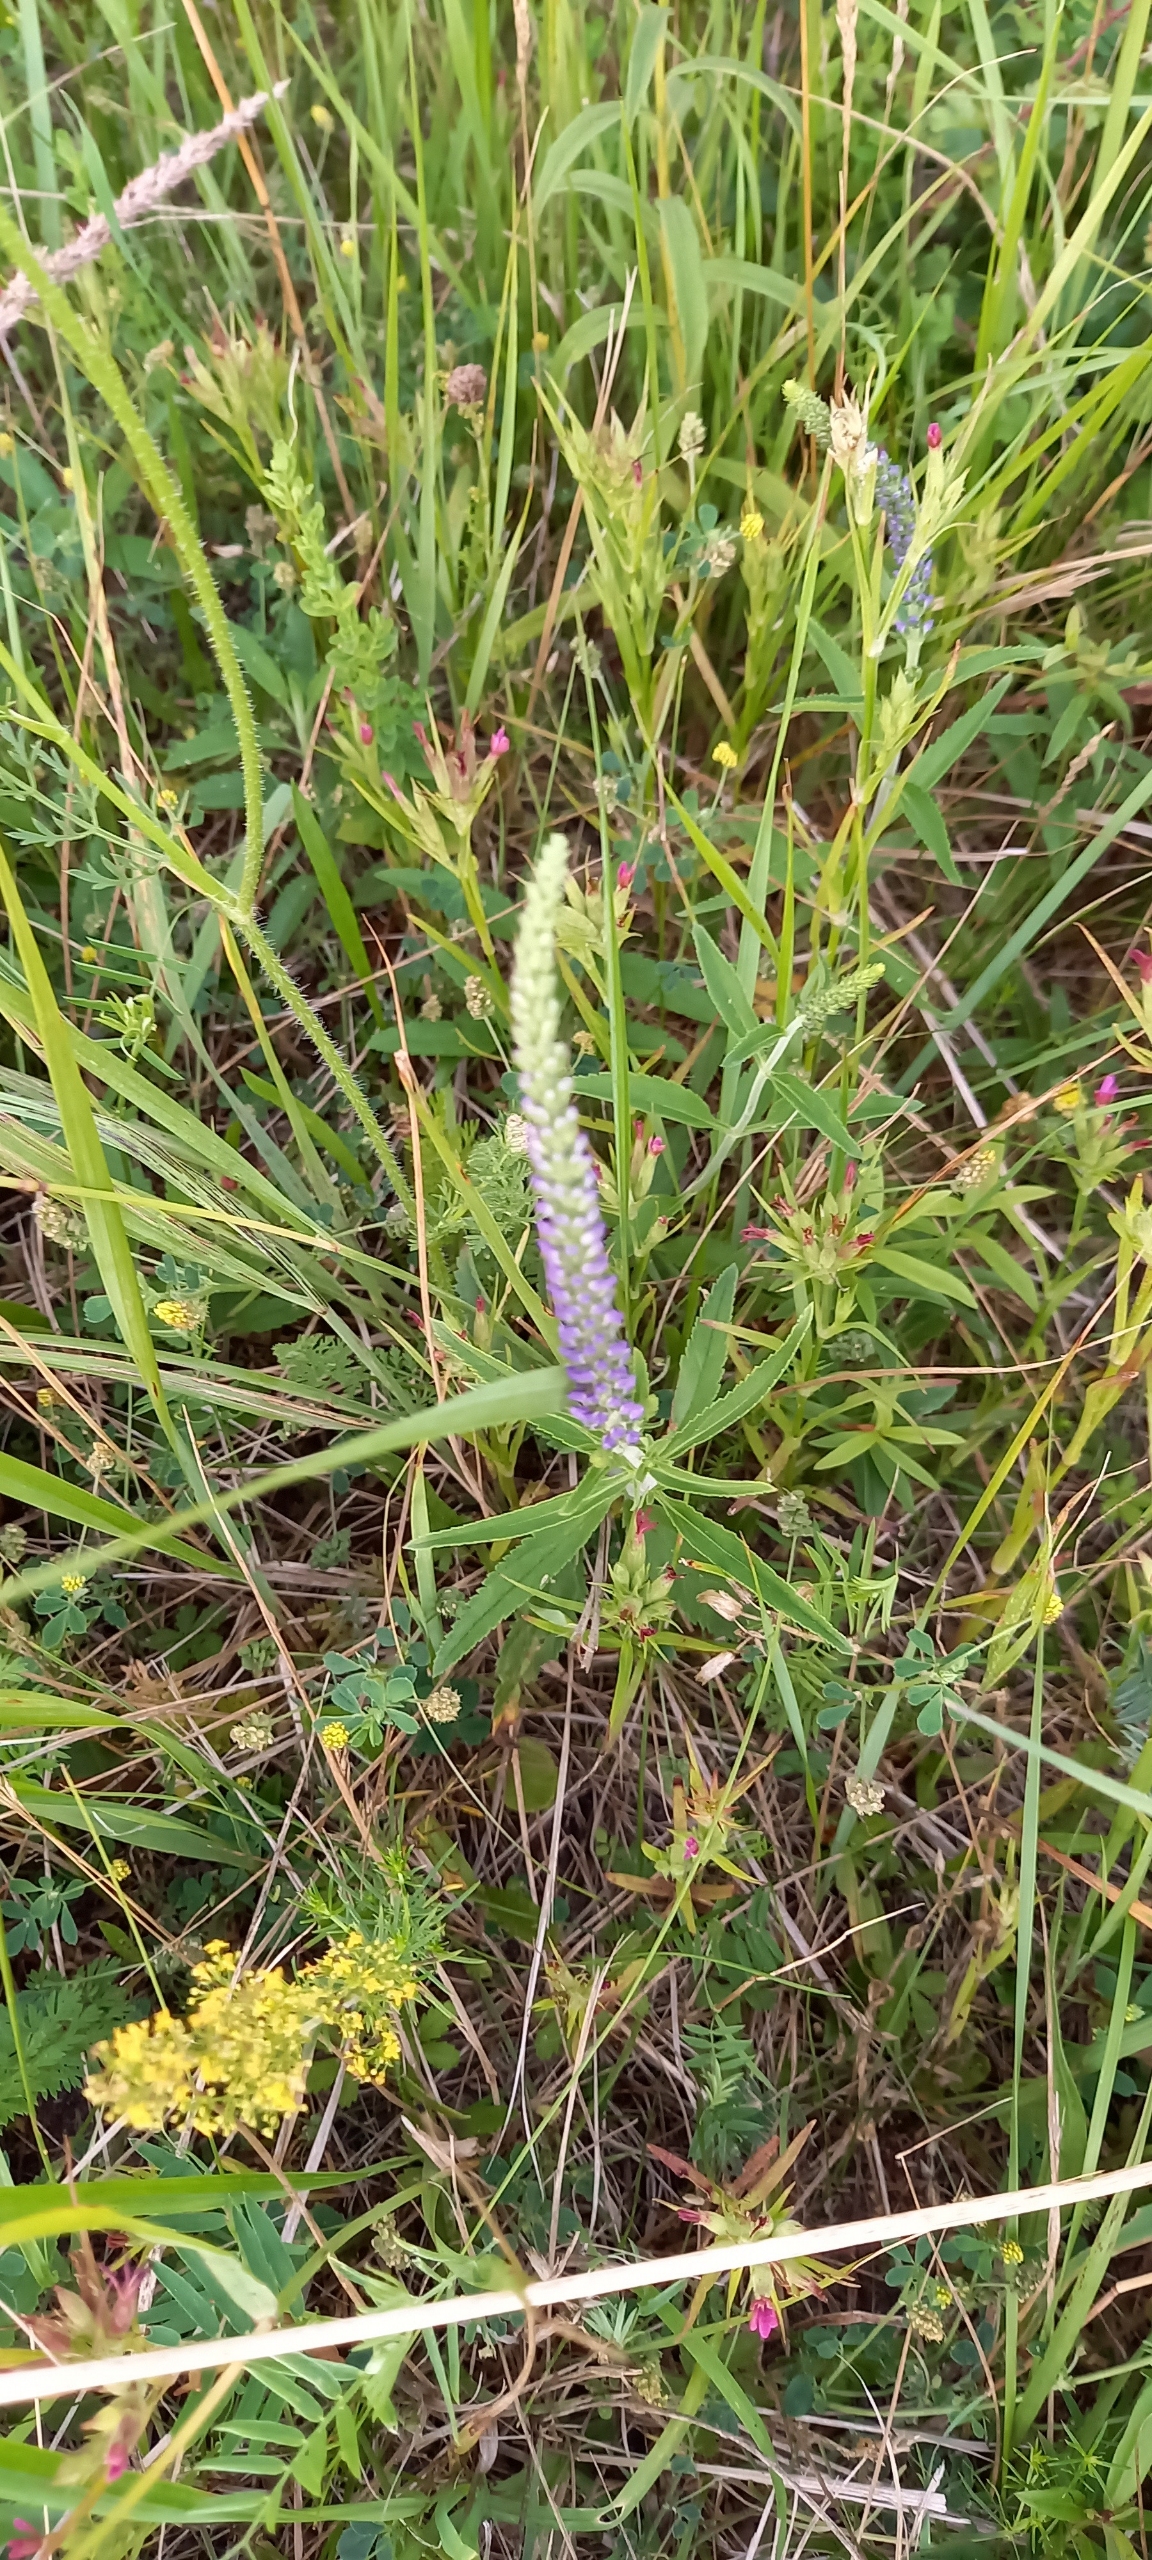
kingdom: Plantae
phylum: Tracheophyta
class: Magnoliopsida
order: Lamiales
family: Plantaginaceae
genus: Veronica
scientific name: Veronica spicata
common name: Aks-ærenpris
